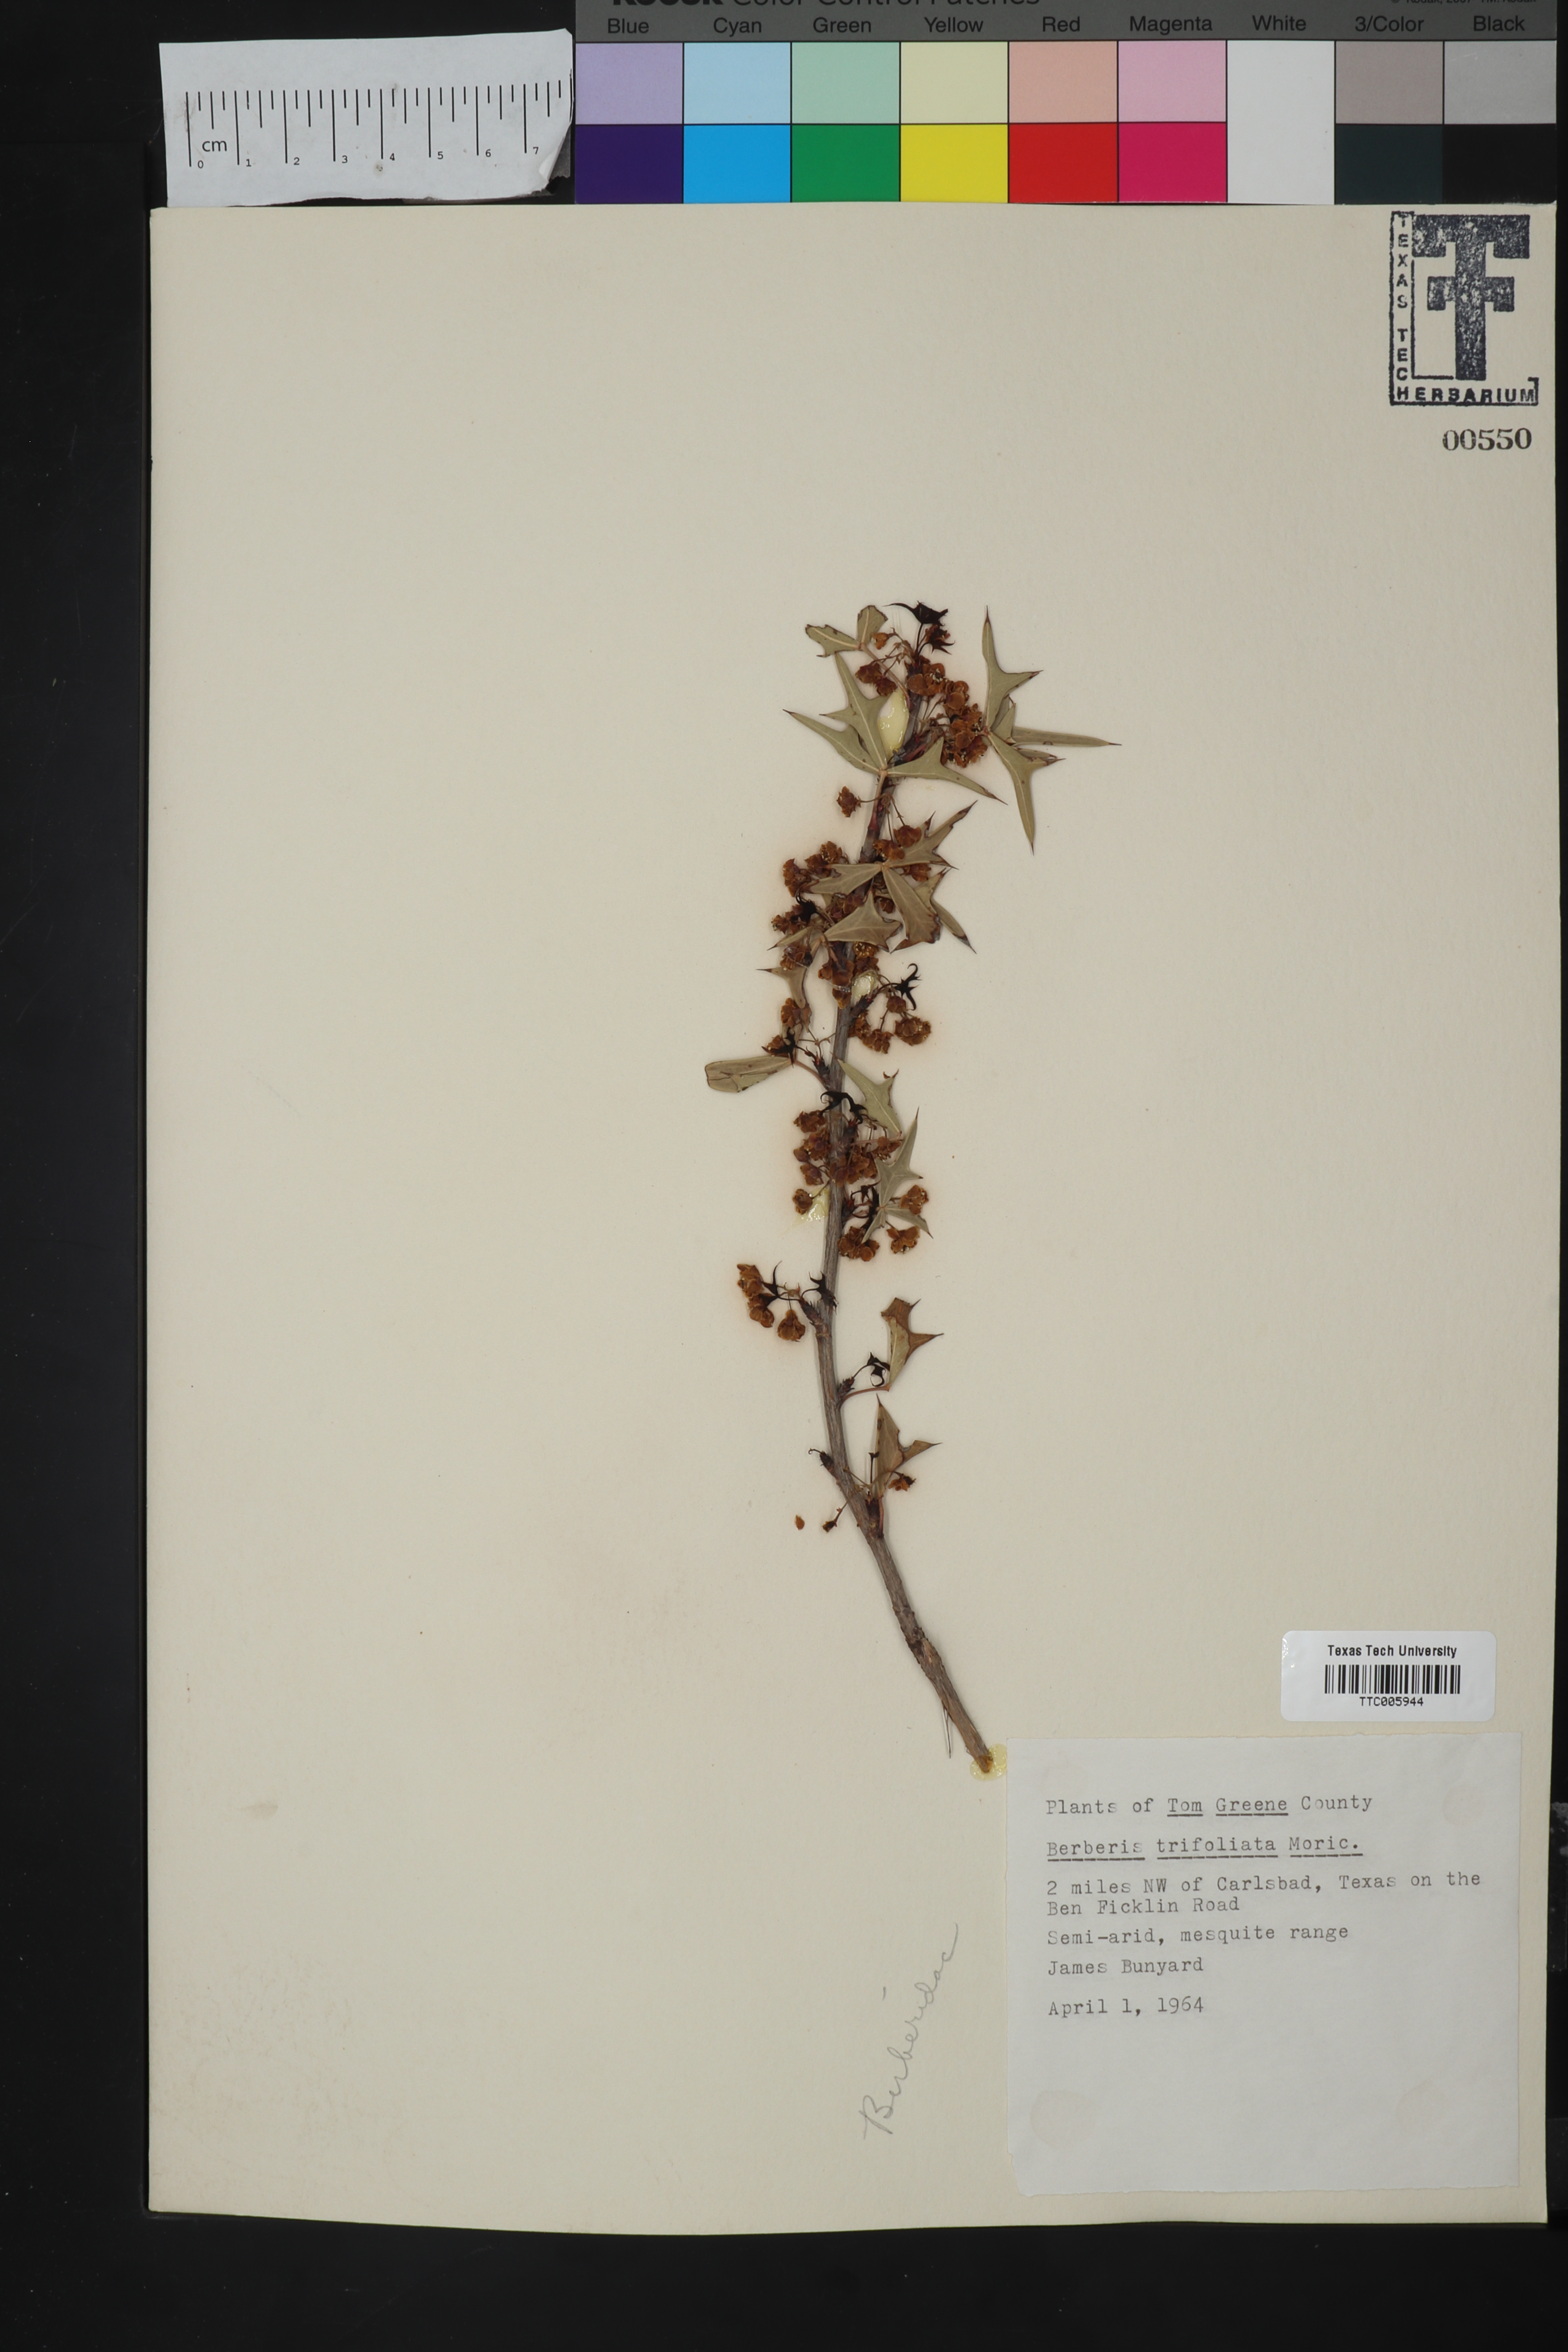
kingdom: Plantae
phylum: Tracheophyta
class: Magnoliopsida
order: Ranunculales
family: Berberidaceae
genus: Alloberberis
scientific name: Alloberberis trifoliolata
